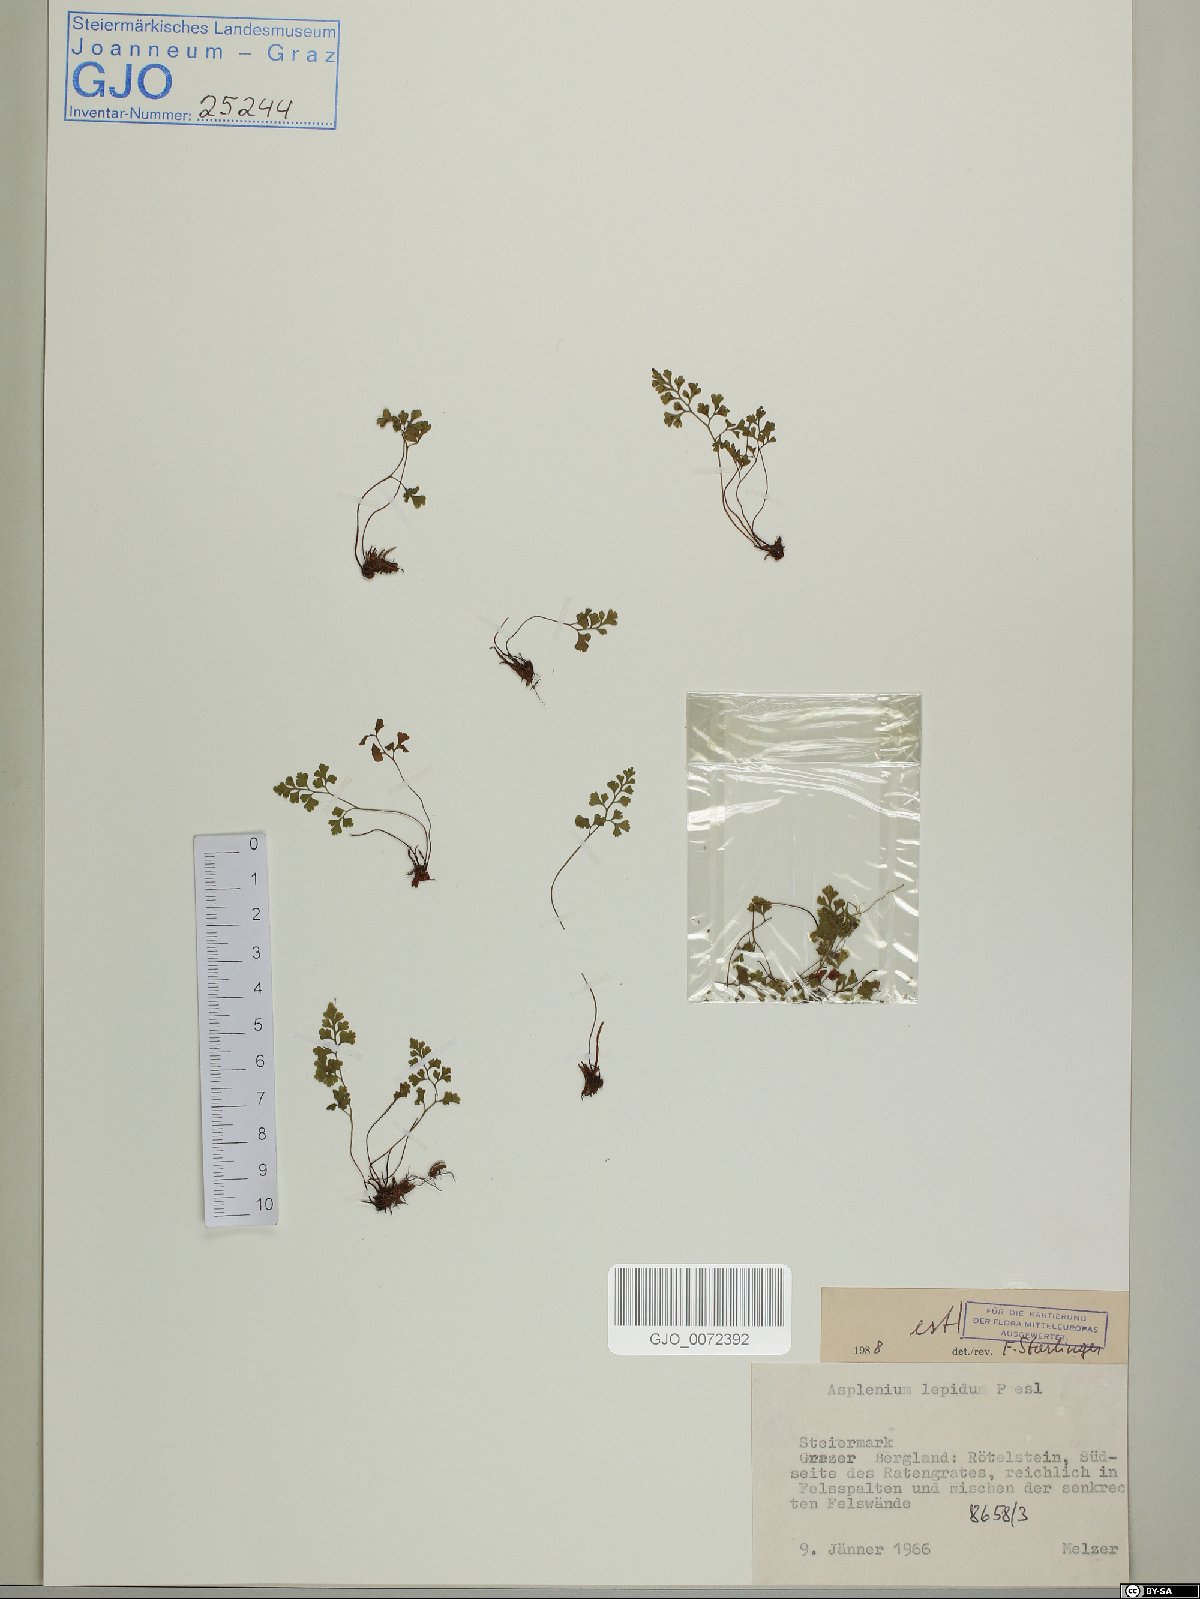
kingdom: Plantae
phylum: Tracheophyta
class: Polypodiopsida
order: Polypodiales
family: Aspleniaceae
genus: Asplenium
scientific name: Asplenium lepidum
